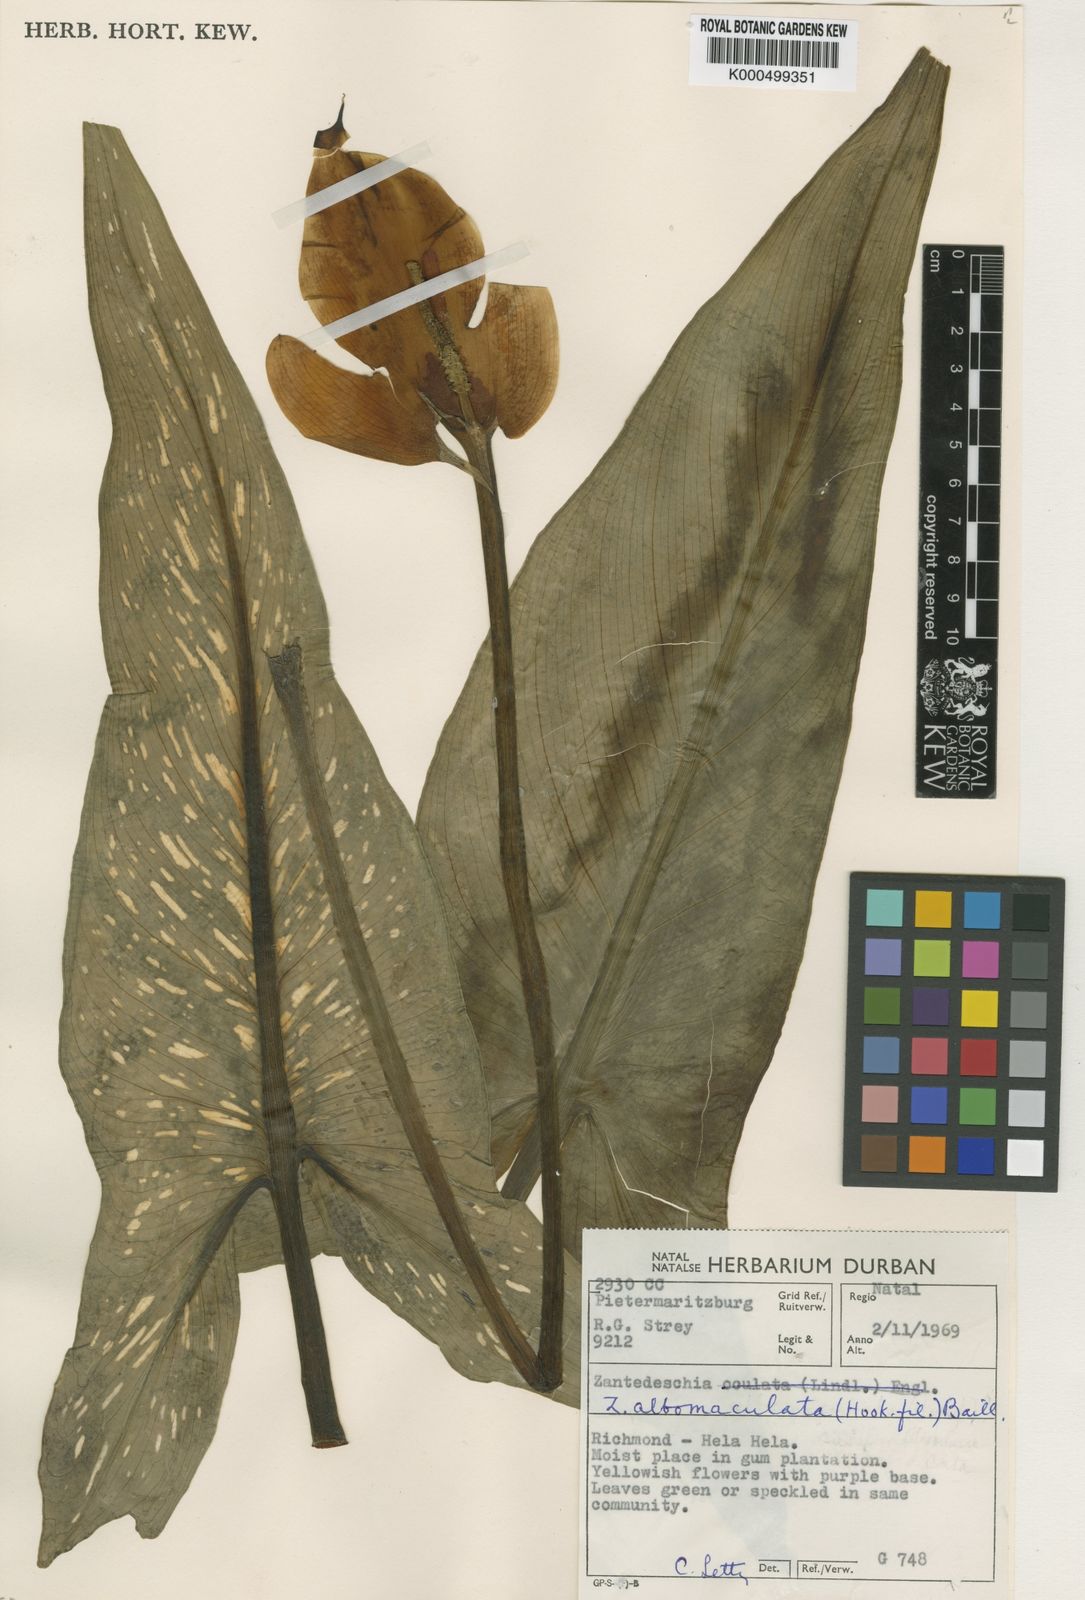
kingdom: Plantae
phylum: Tracheophyta
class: Liliopsida
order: Alismatales
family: Araceae
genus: Zantedeschia
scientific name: Zantedeschia albomaculata
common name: Spotted calla lily
